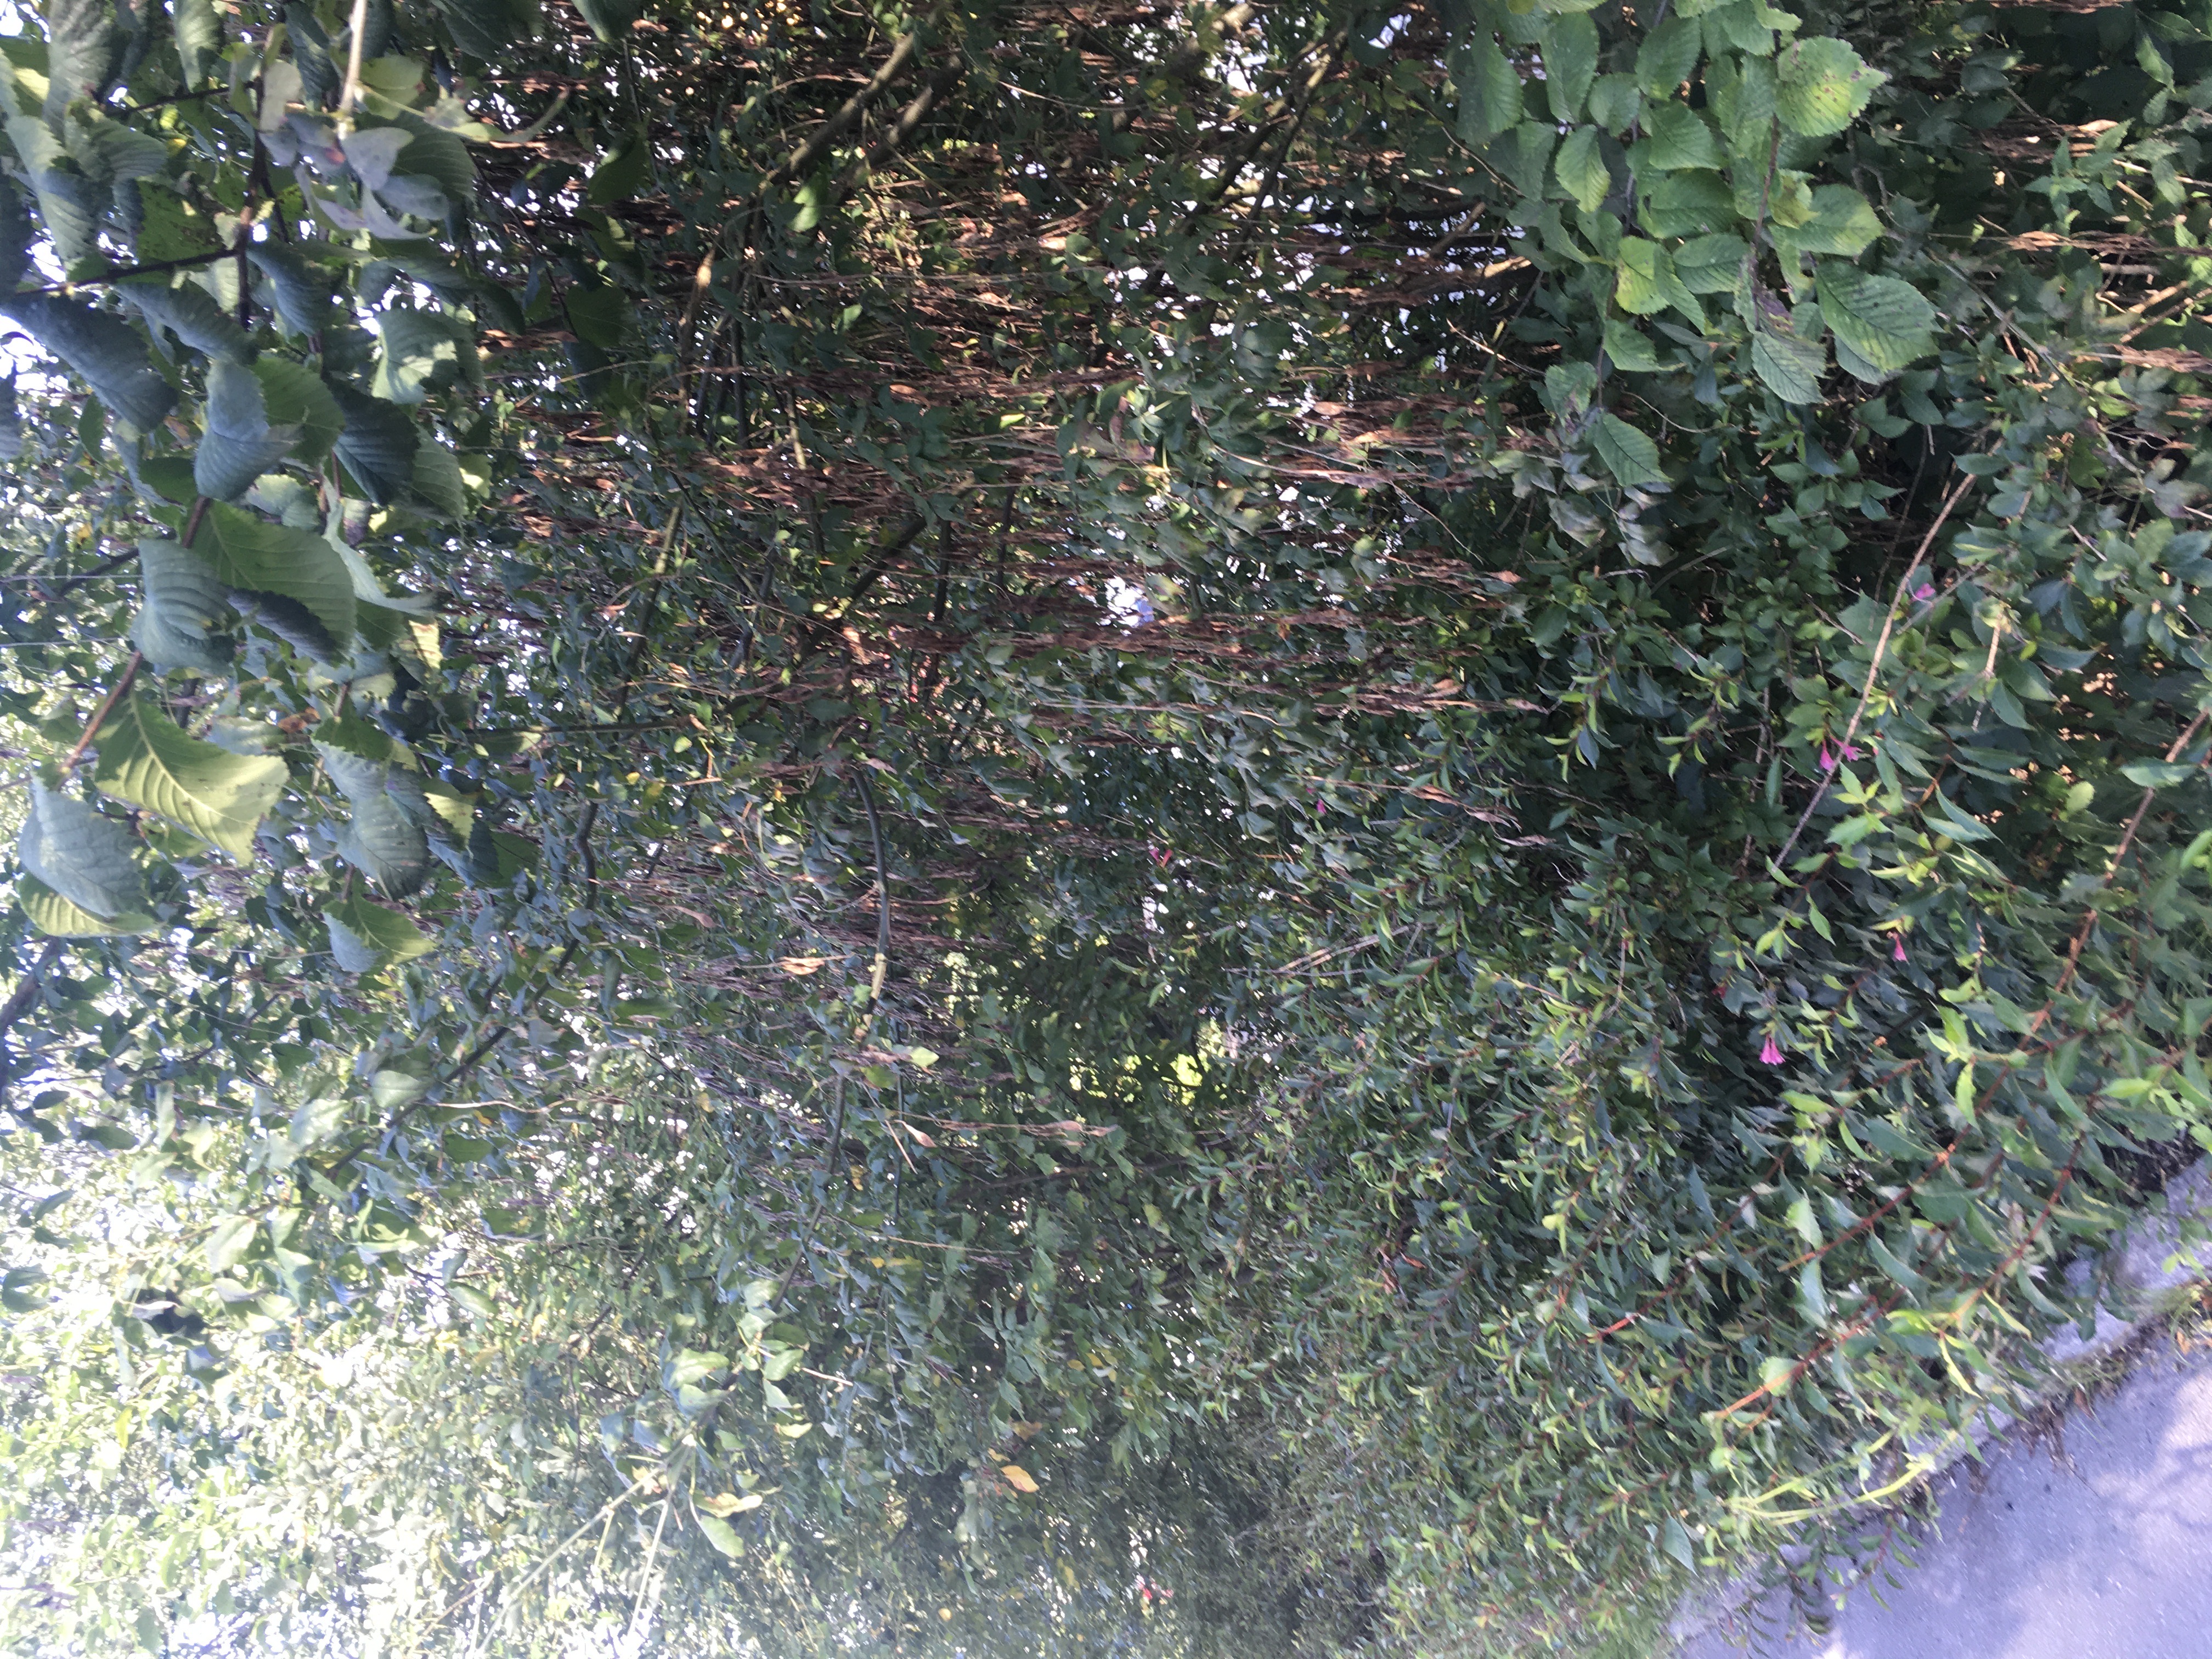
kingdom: Plantae
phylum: Tracheophyta
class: Magnoliopsida
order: Fabales
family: Fabaceae
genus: Laburnum
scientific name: Laburnum alpinum
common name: alpegullregn
